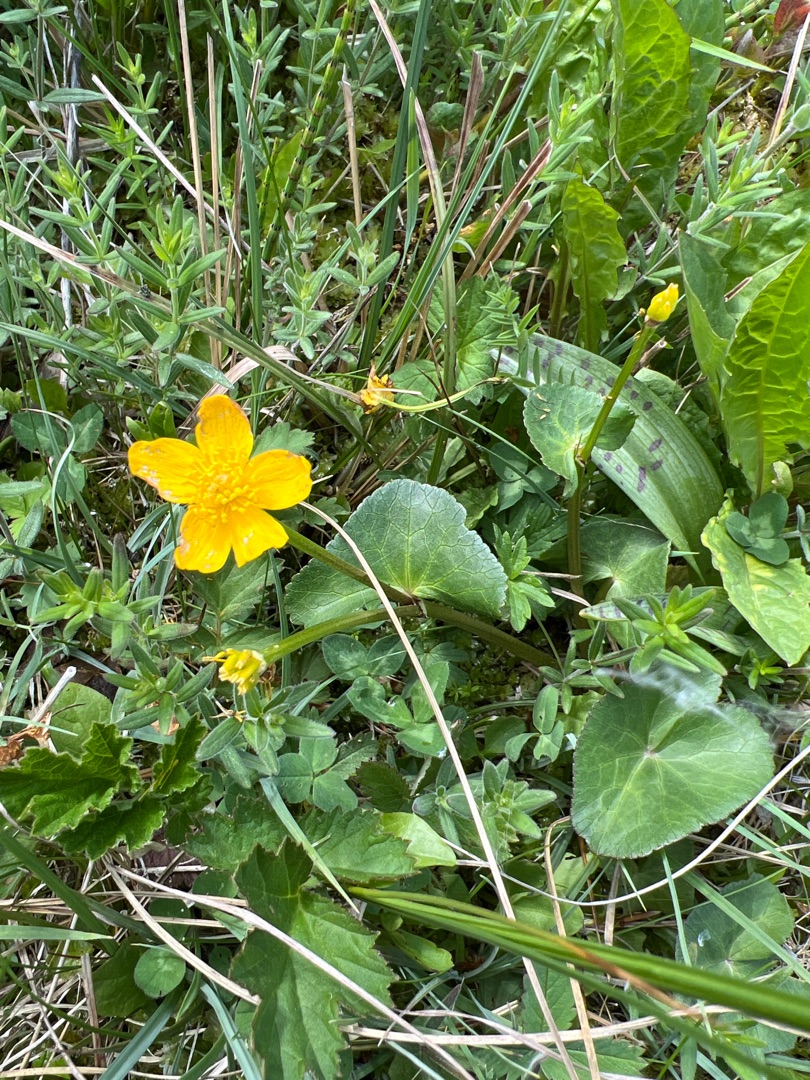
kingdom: Plantae
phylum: Tracheophyta
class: Magnoliopsida
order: Ranunculales
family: Ranunculaceae
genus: Caltha
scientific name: Caltha palustris
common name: Eng-kabbeleje
